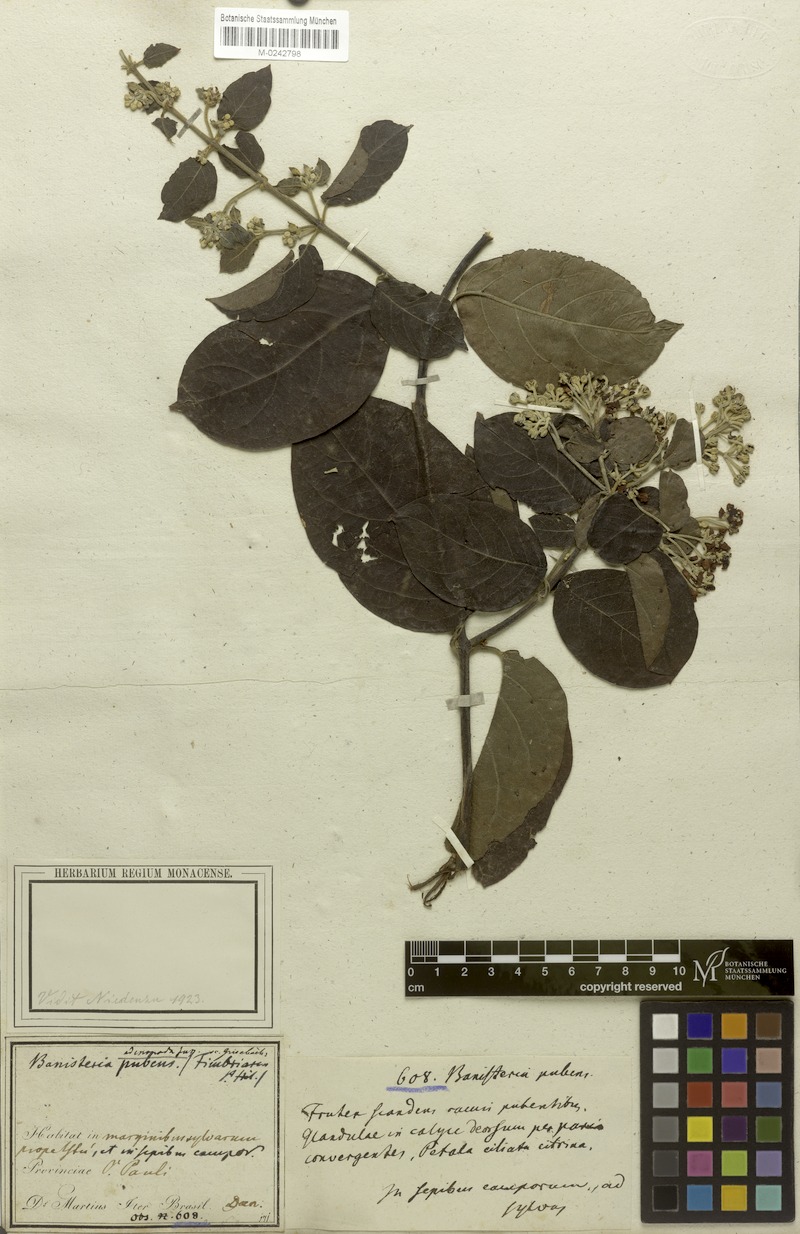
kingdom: Plantae
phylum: Tracheophyta
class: Magnoliopsida
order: Malpighiales
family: Malpighiaceae
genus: Banisteriopsis
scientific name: Banisteriopsis adenopoda
